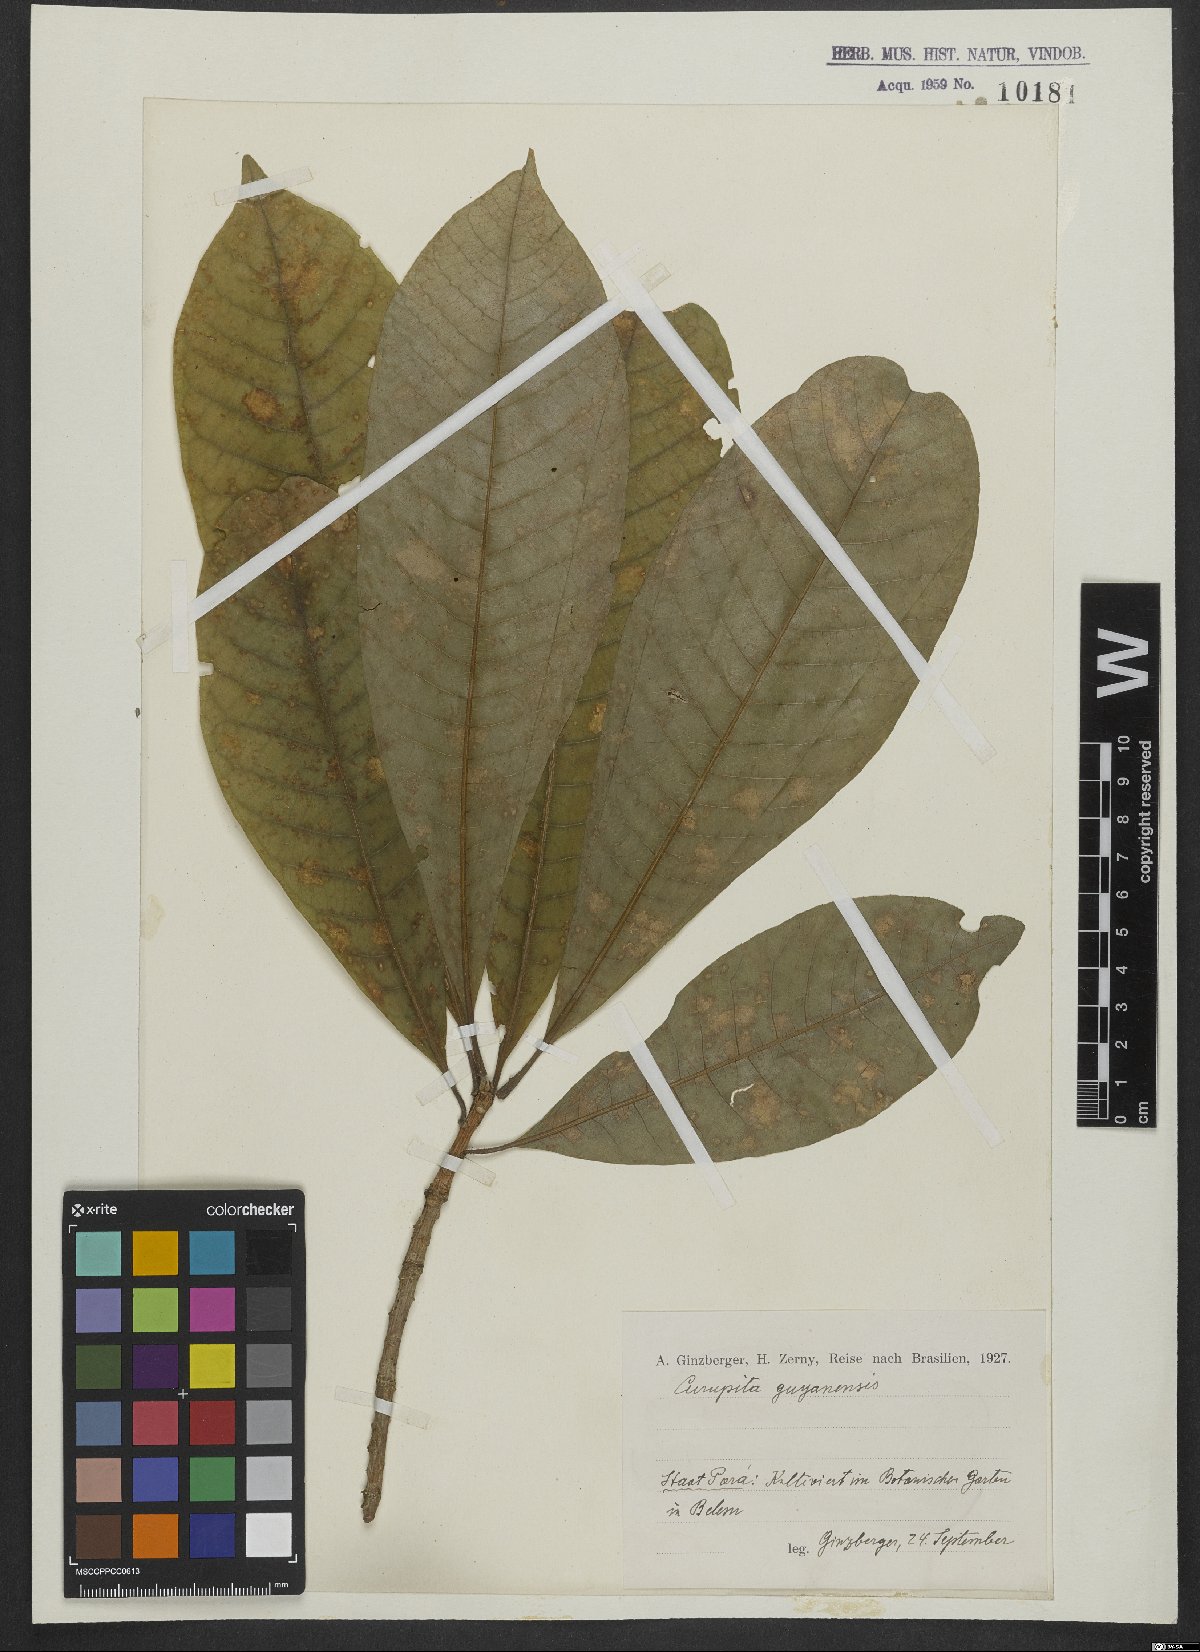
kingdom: Plantae
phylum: Tracheophyta
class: Magnoliopsida
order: Ericales
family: Lecythidaceae
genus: Couroupita
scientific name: Couroupita guianensis
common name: Cannonball tree
